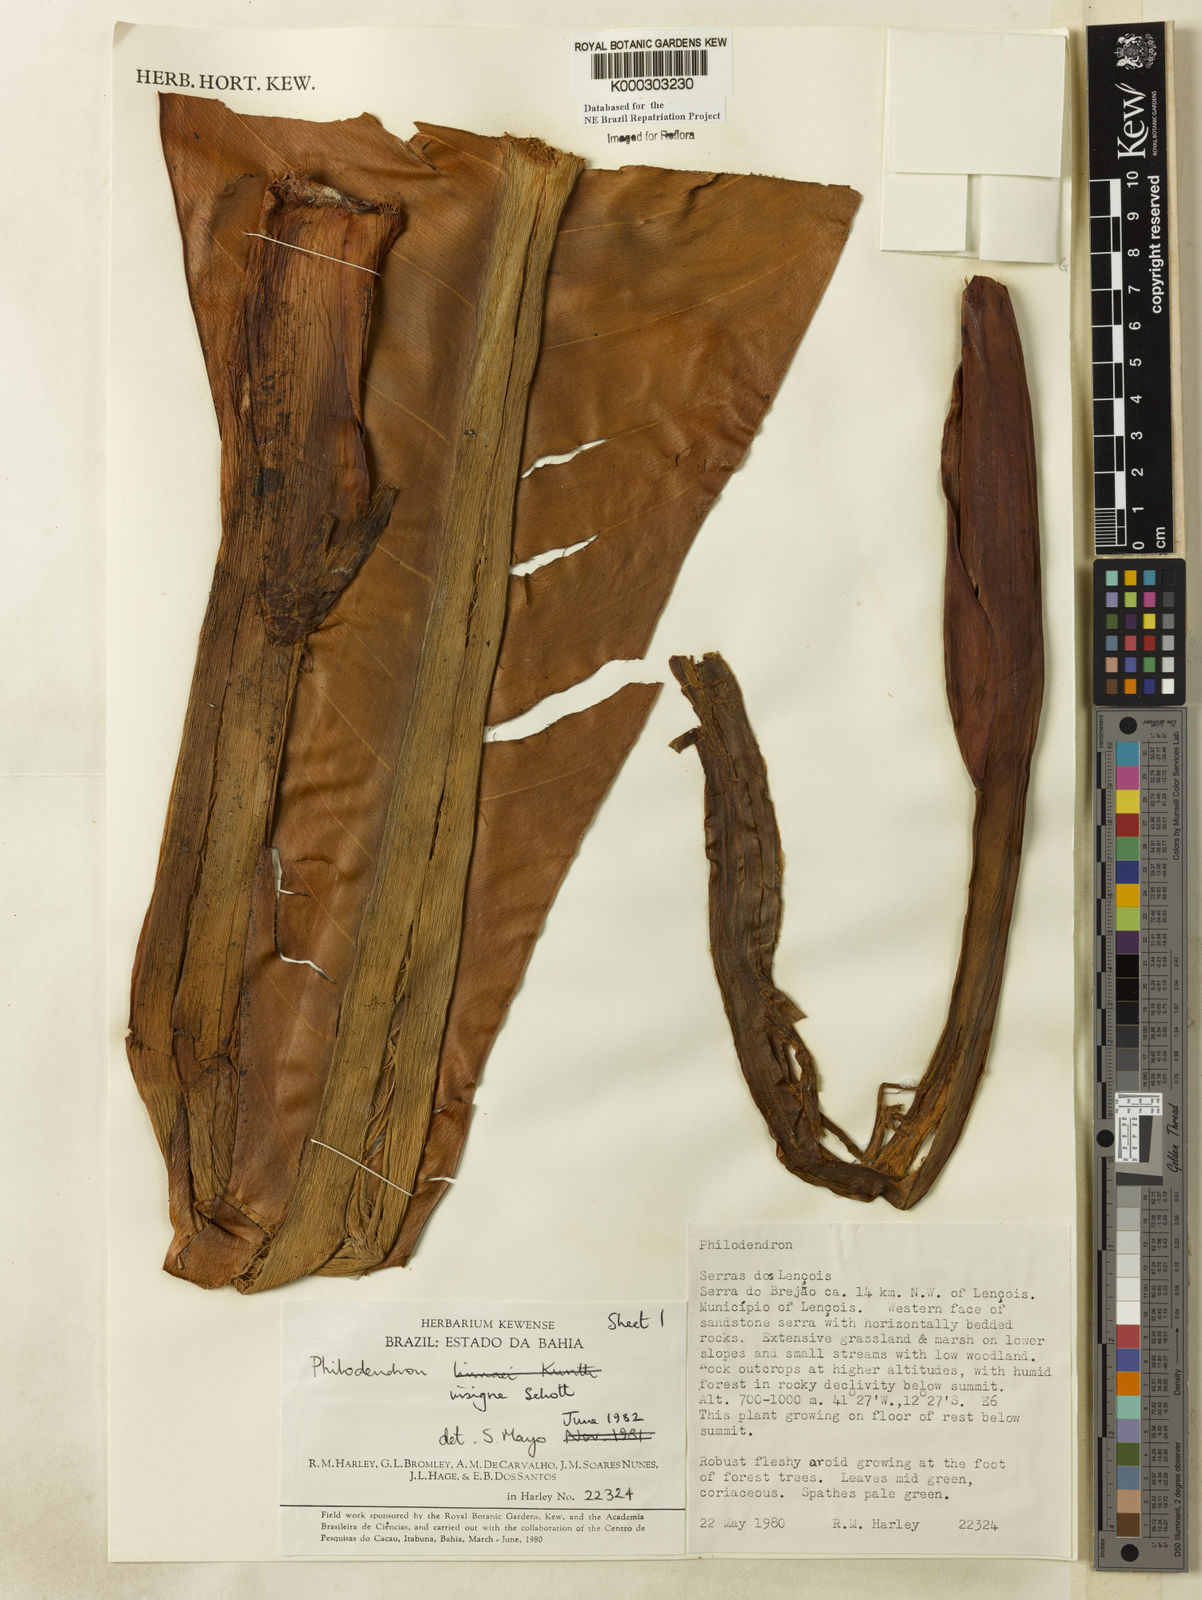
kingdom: Plantae
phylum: Tracheophyta
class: Liliopsida
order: Alismatales
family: Araceae
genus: Philodendron
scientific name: Philodendron insigne
